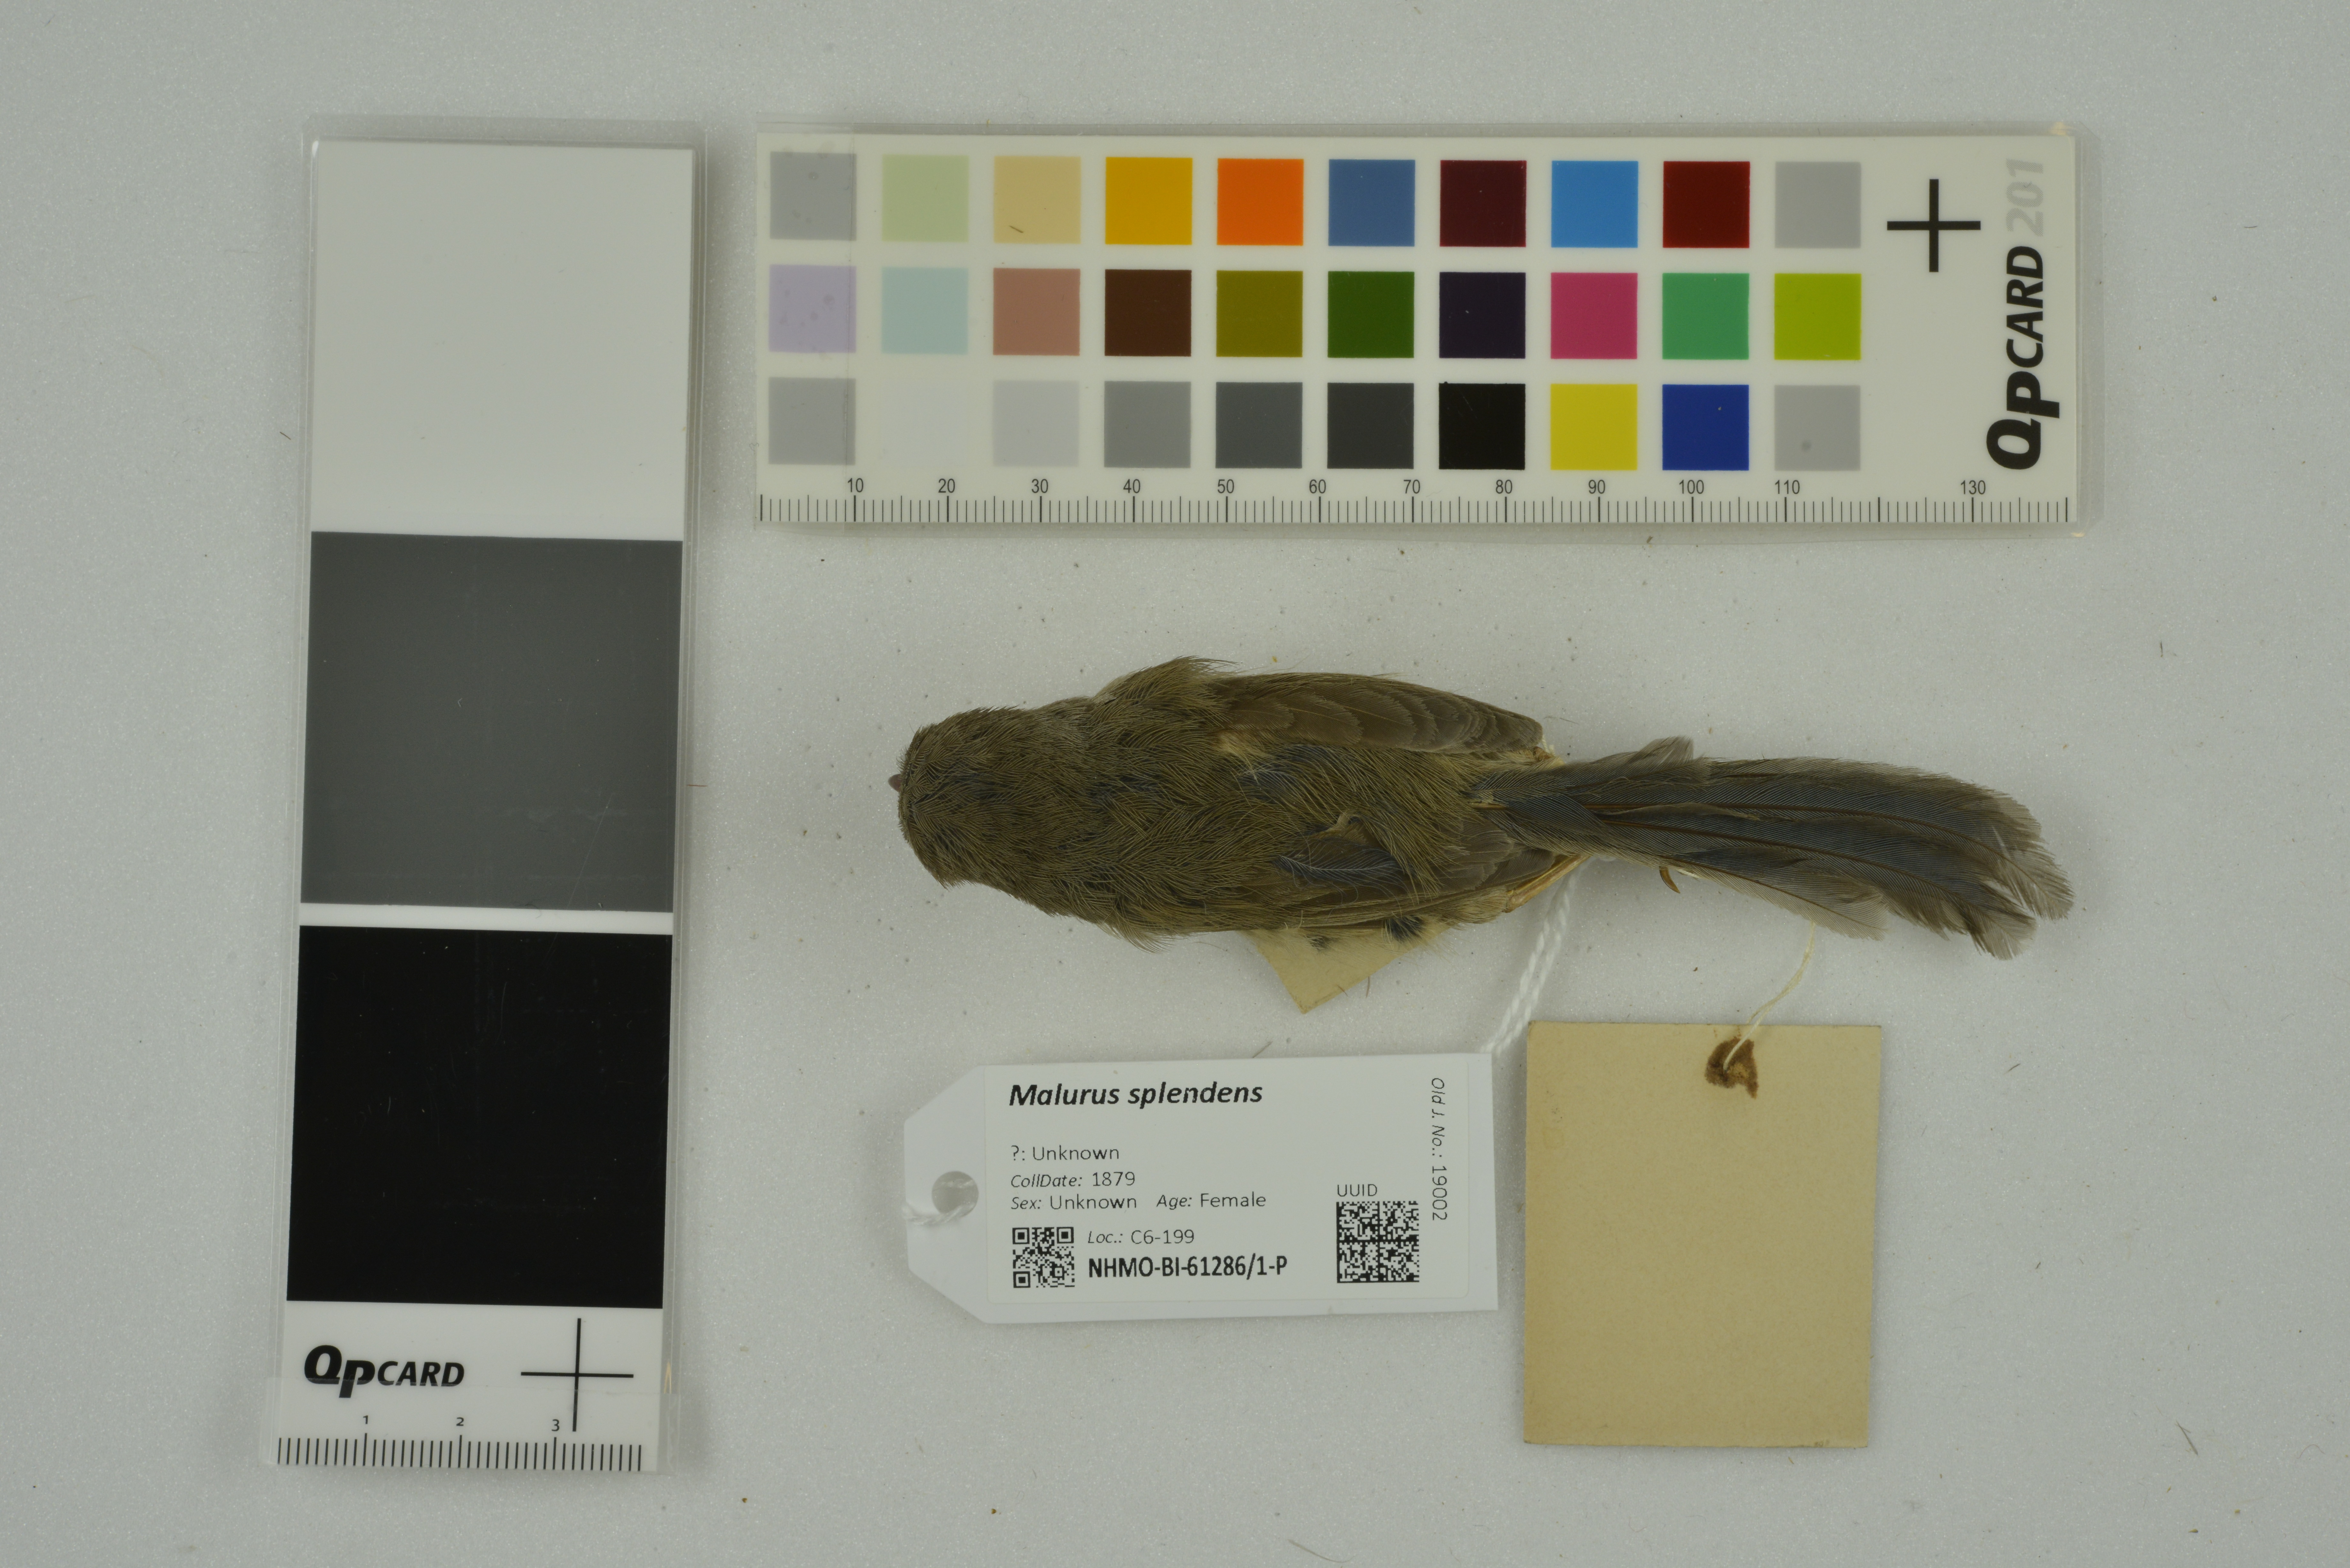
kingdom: Animalia
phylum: Chordata
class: Aves
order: Passeriformes
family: Maluridae
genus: Malurus
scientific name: Malurus splendens
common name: Splendid fairywren
